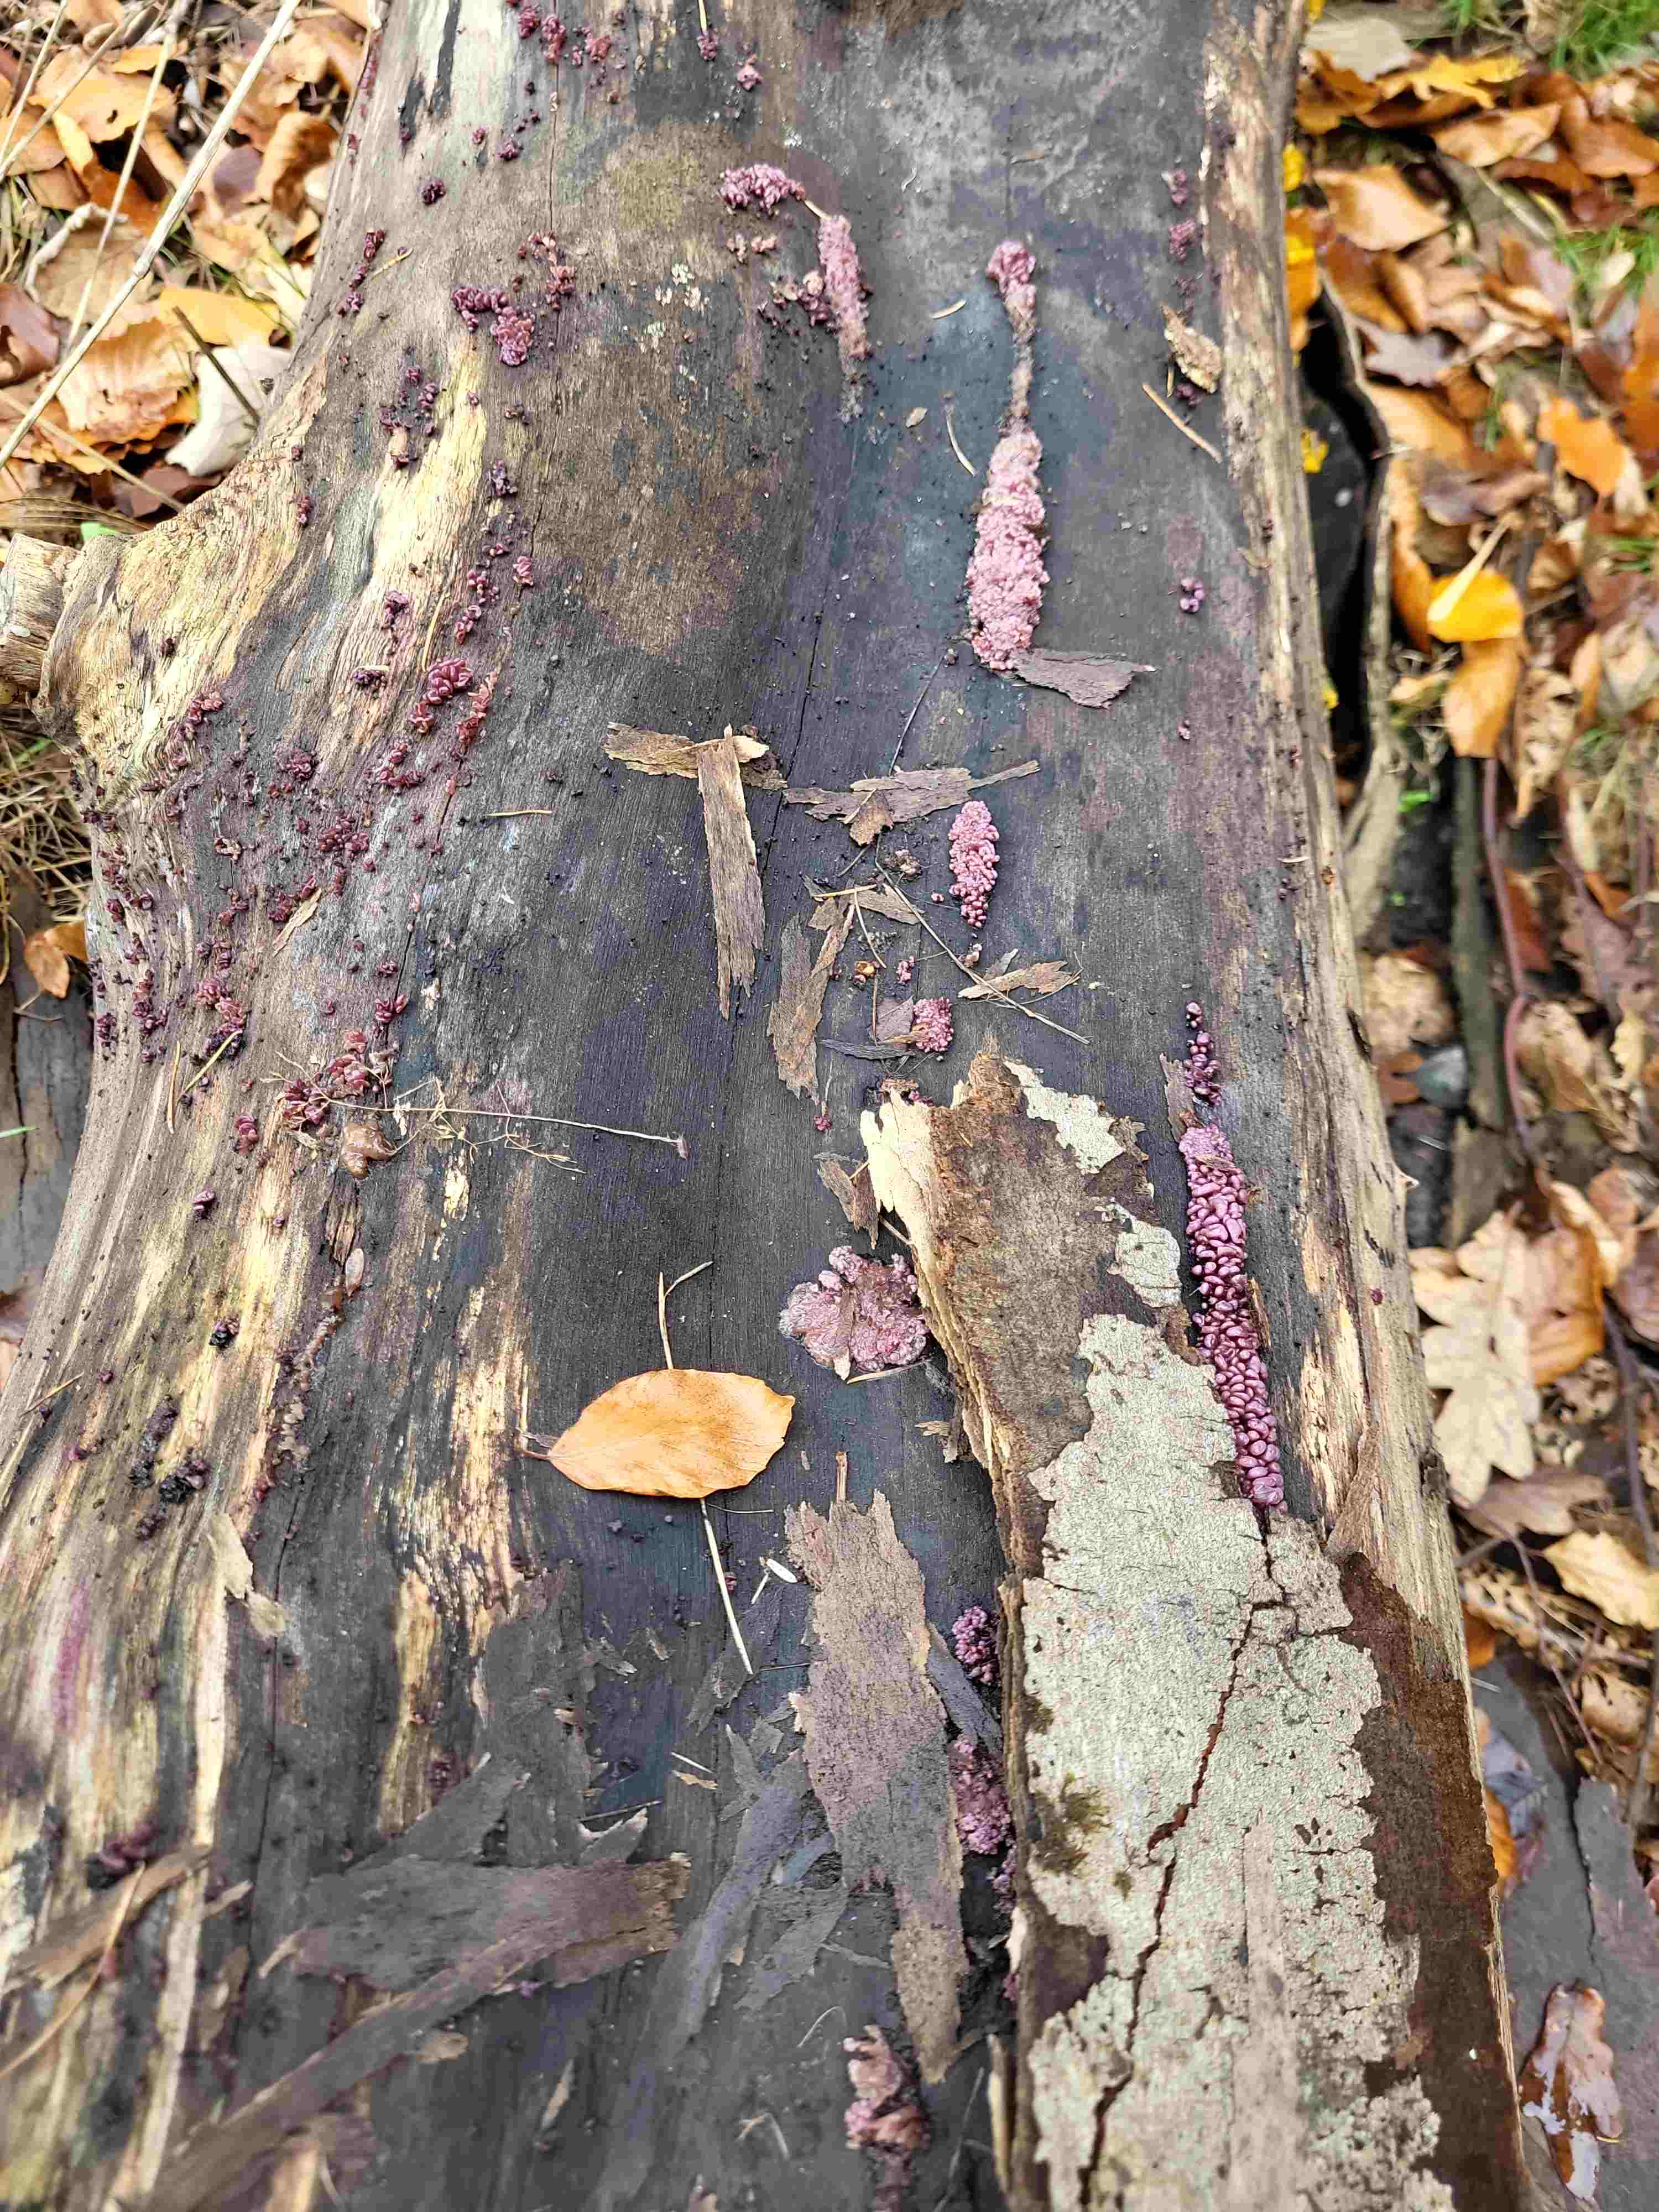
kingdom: Fungi
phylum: Ascomycota
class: Leotiomycetes
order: Helotiales
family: Gelatinodiscaceae
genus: Ascocoryne
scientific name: Ascocoryne sarcoides
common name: rødlilla sejskive
